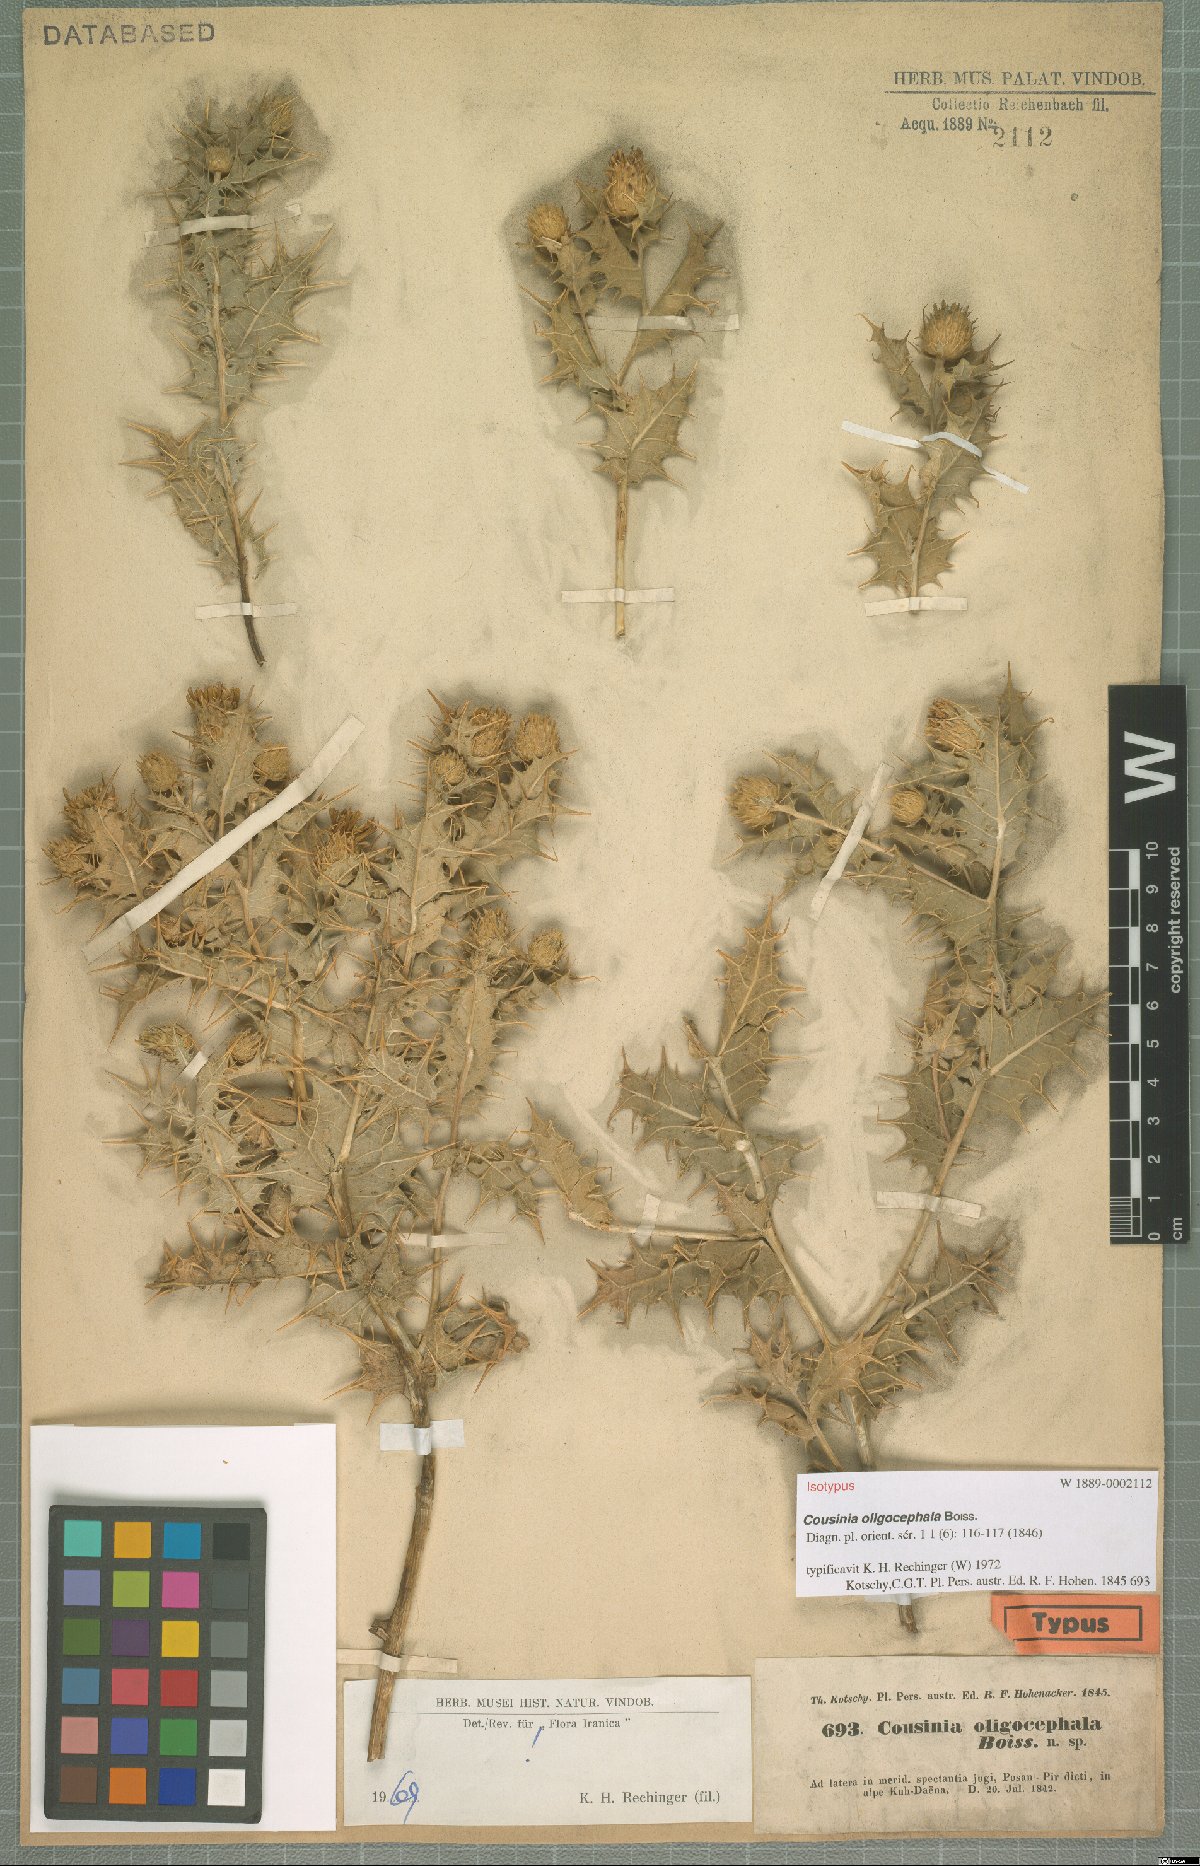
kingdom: Plantae
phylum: Tracheophyta
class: Magnoliopsida
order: Asterales
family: Asteraceae
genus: Cousinia
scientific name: Cousinia oligocephala
